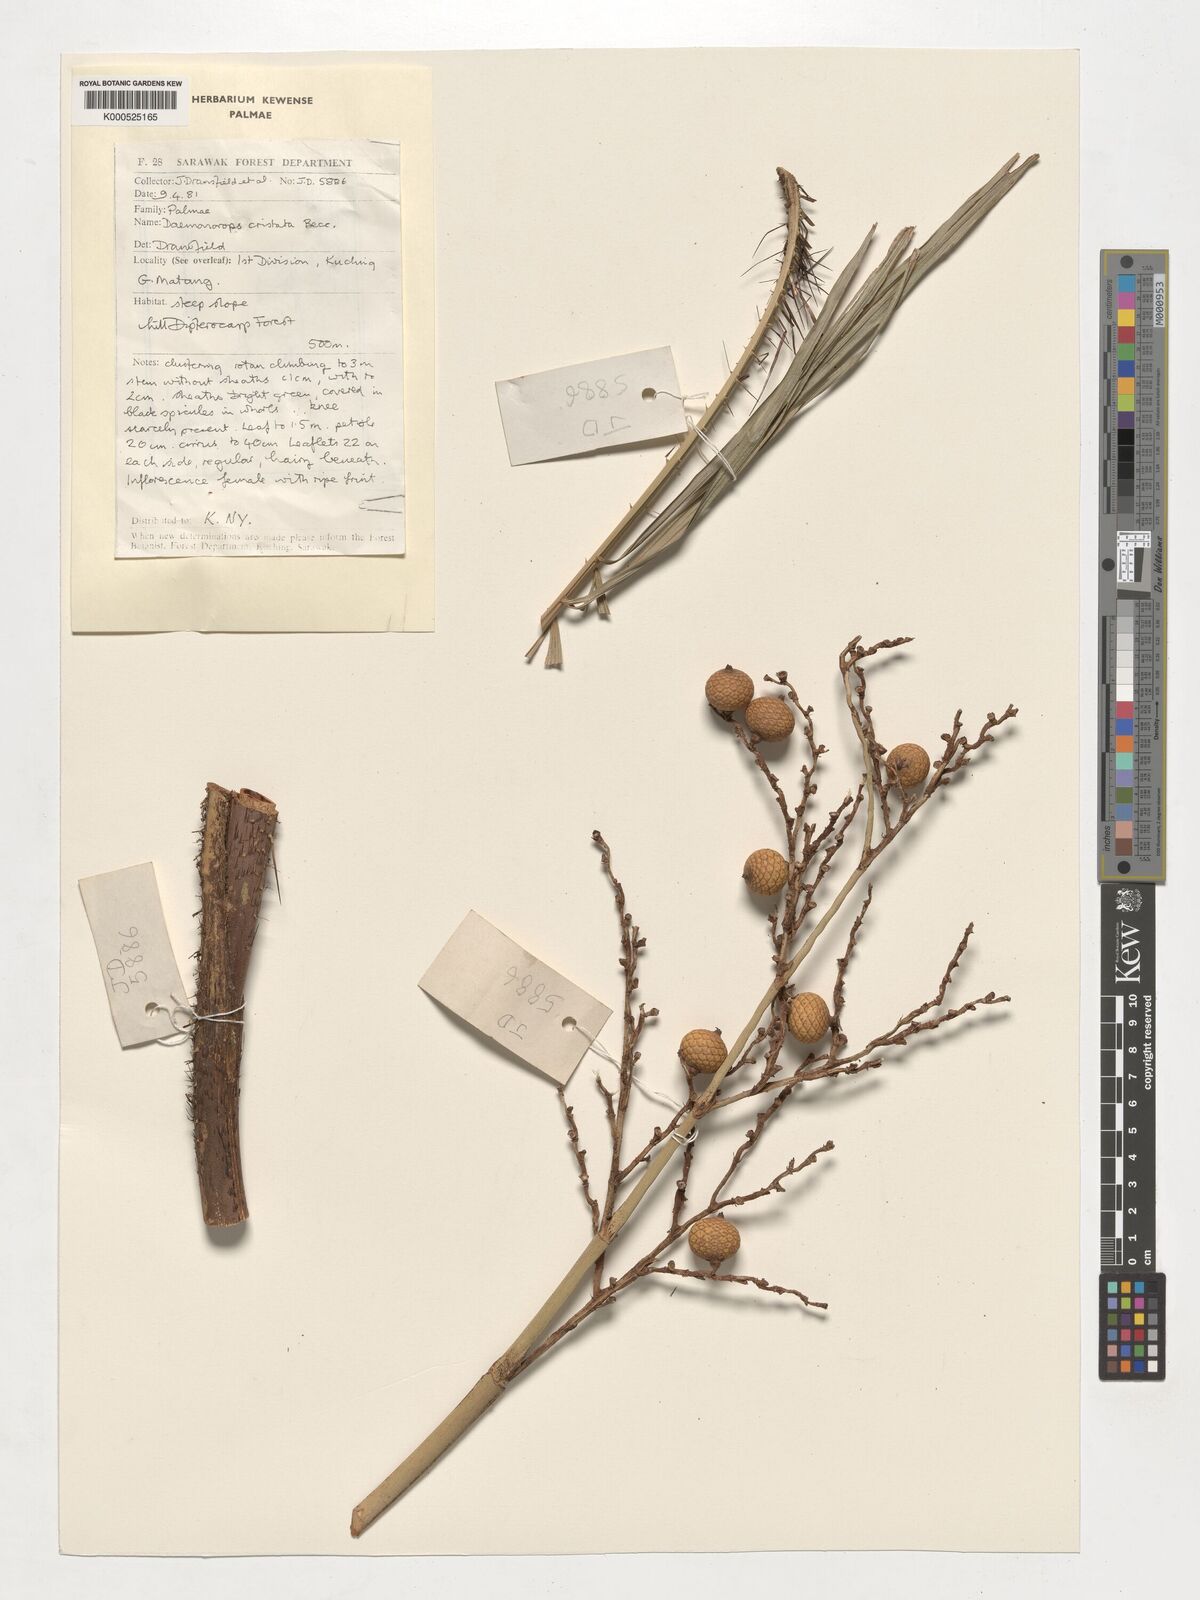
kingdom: Plantae
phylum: Tracheophyta
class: Liliopsida
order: Arecales
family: Arecaceae
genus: Calamus
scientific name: Calamus cristatus
